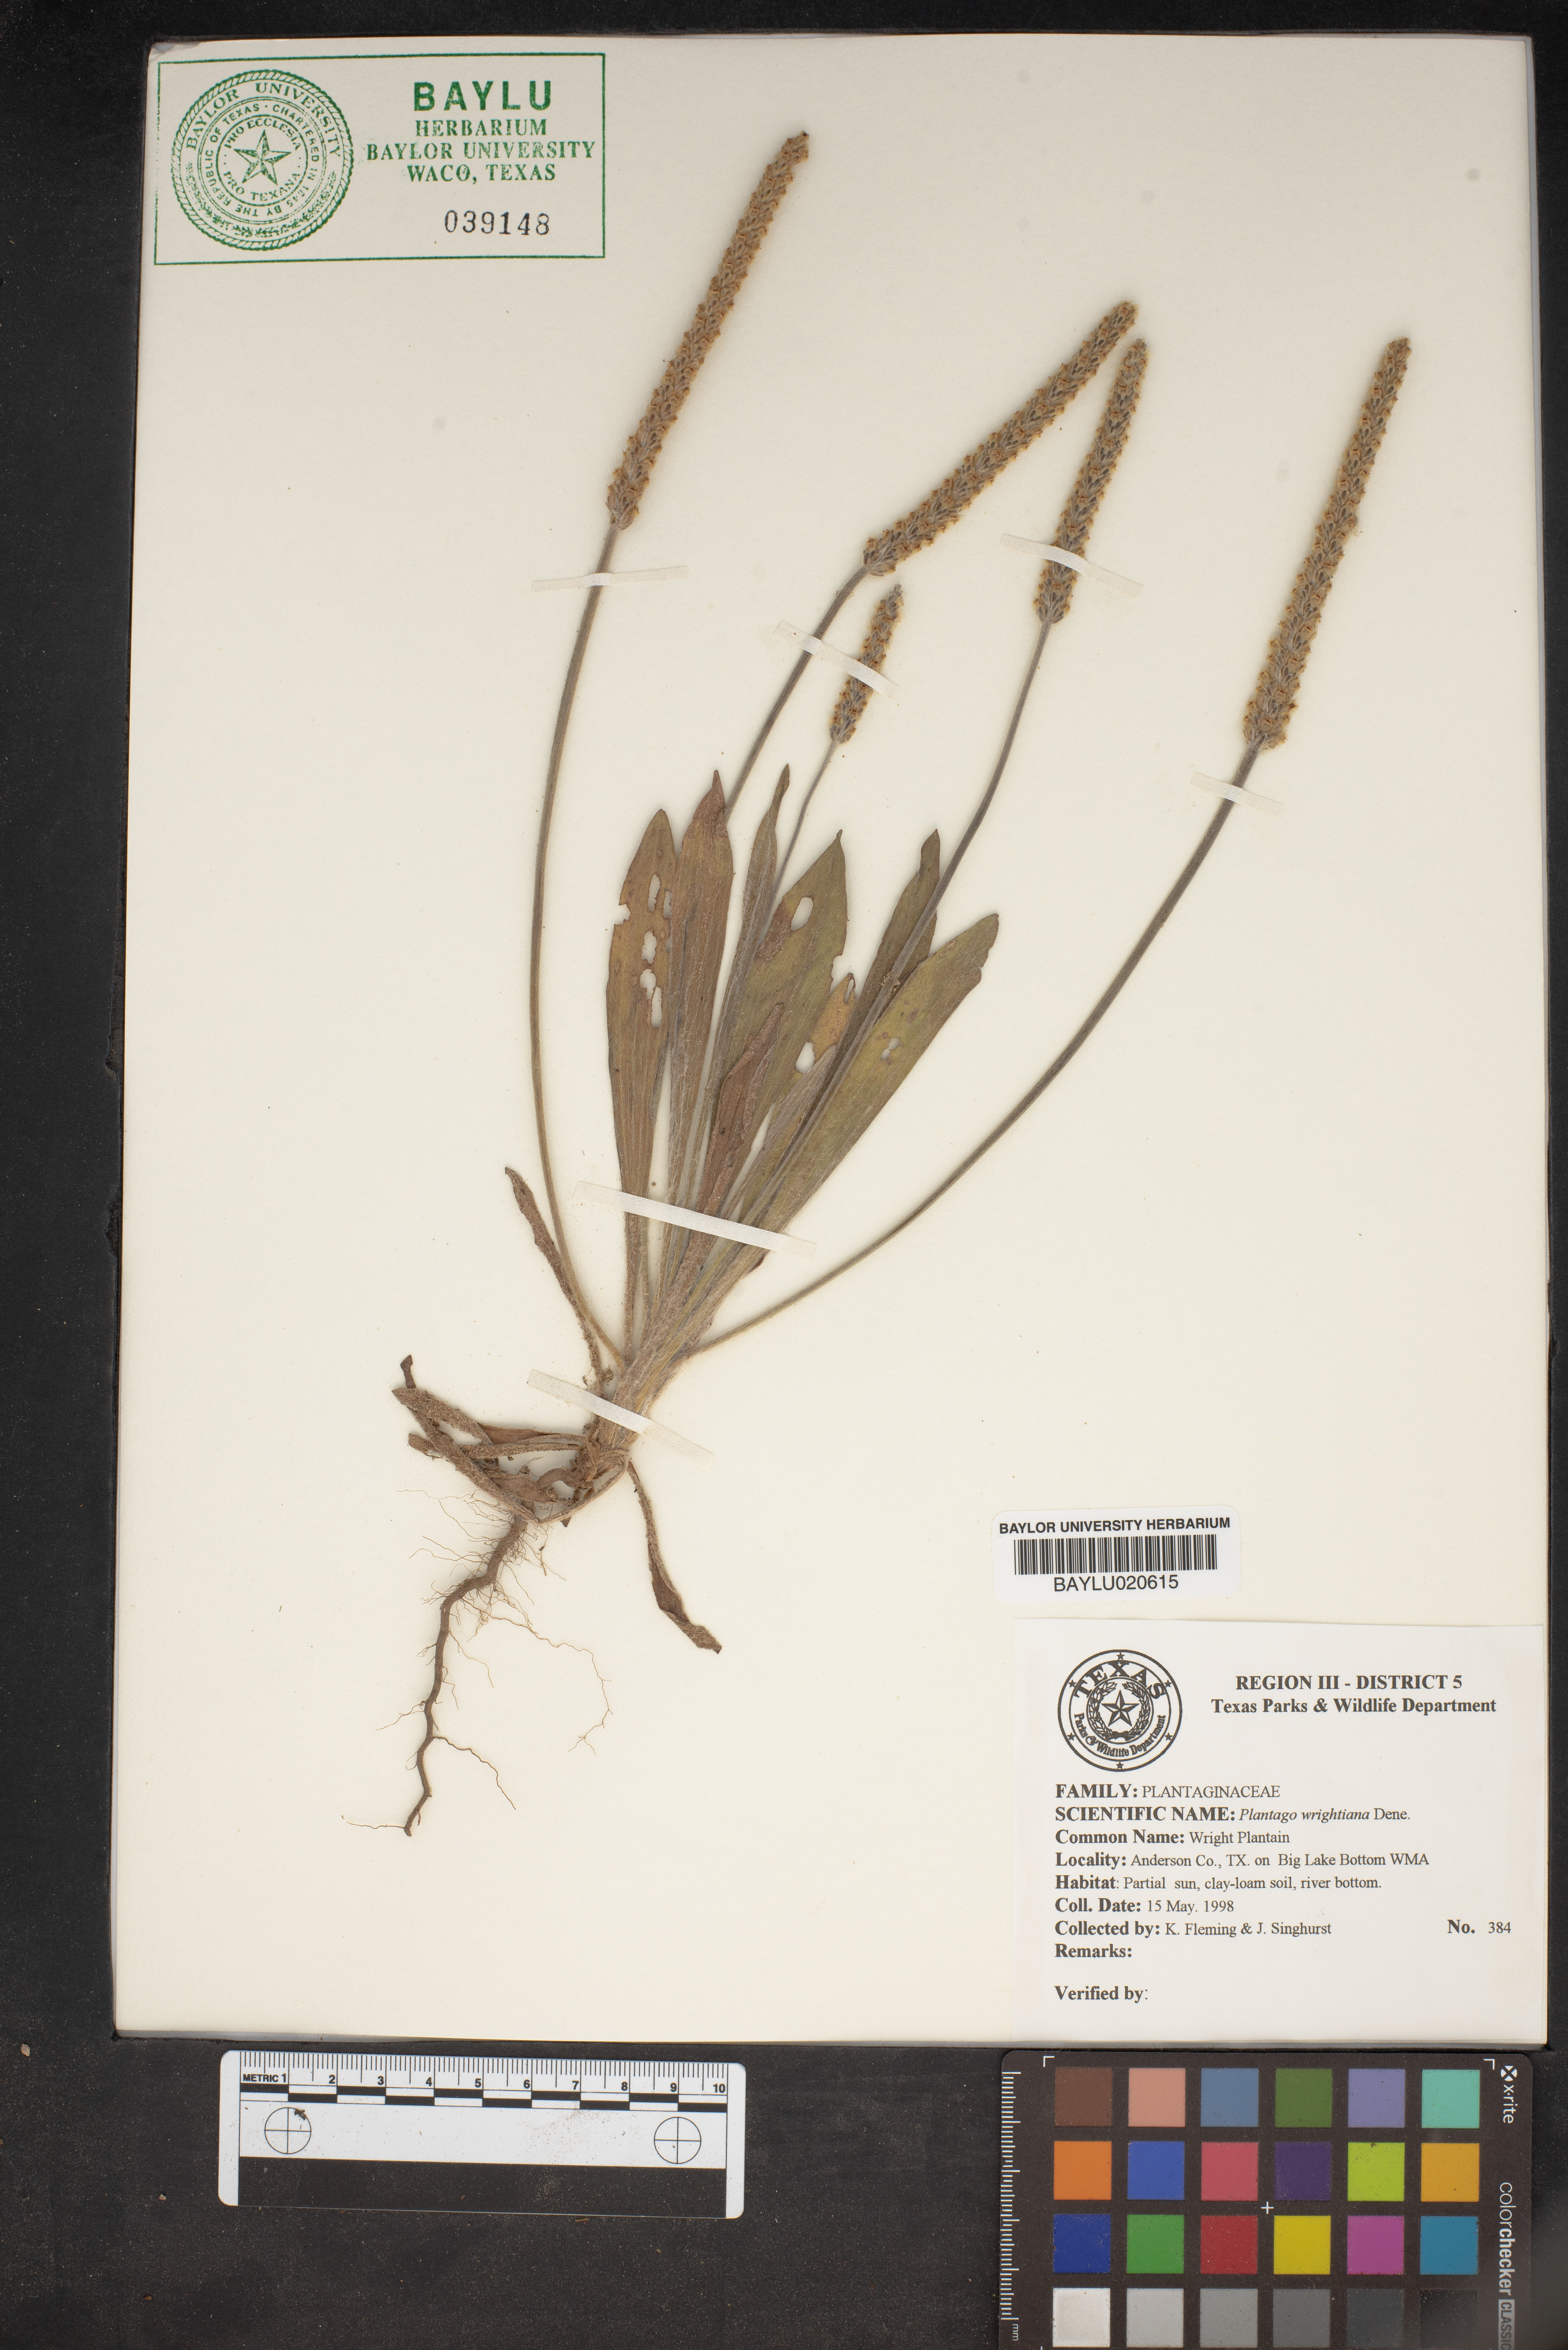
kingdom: Plantae
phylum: Tracheophyta
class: Magnoliopsida
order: Lamiales
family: Plantaginaceae
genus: Plantago
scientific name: Plantago wrightiana
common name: Wright's plantain
